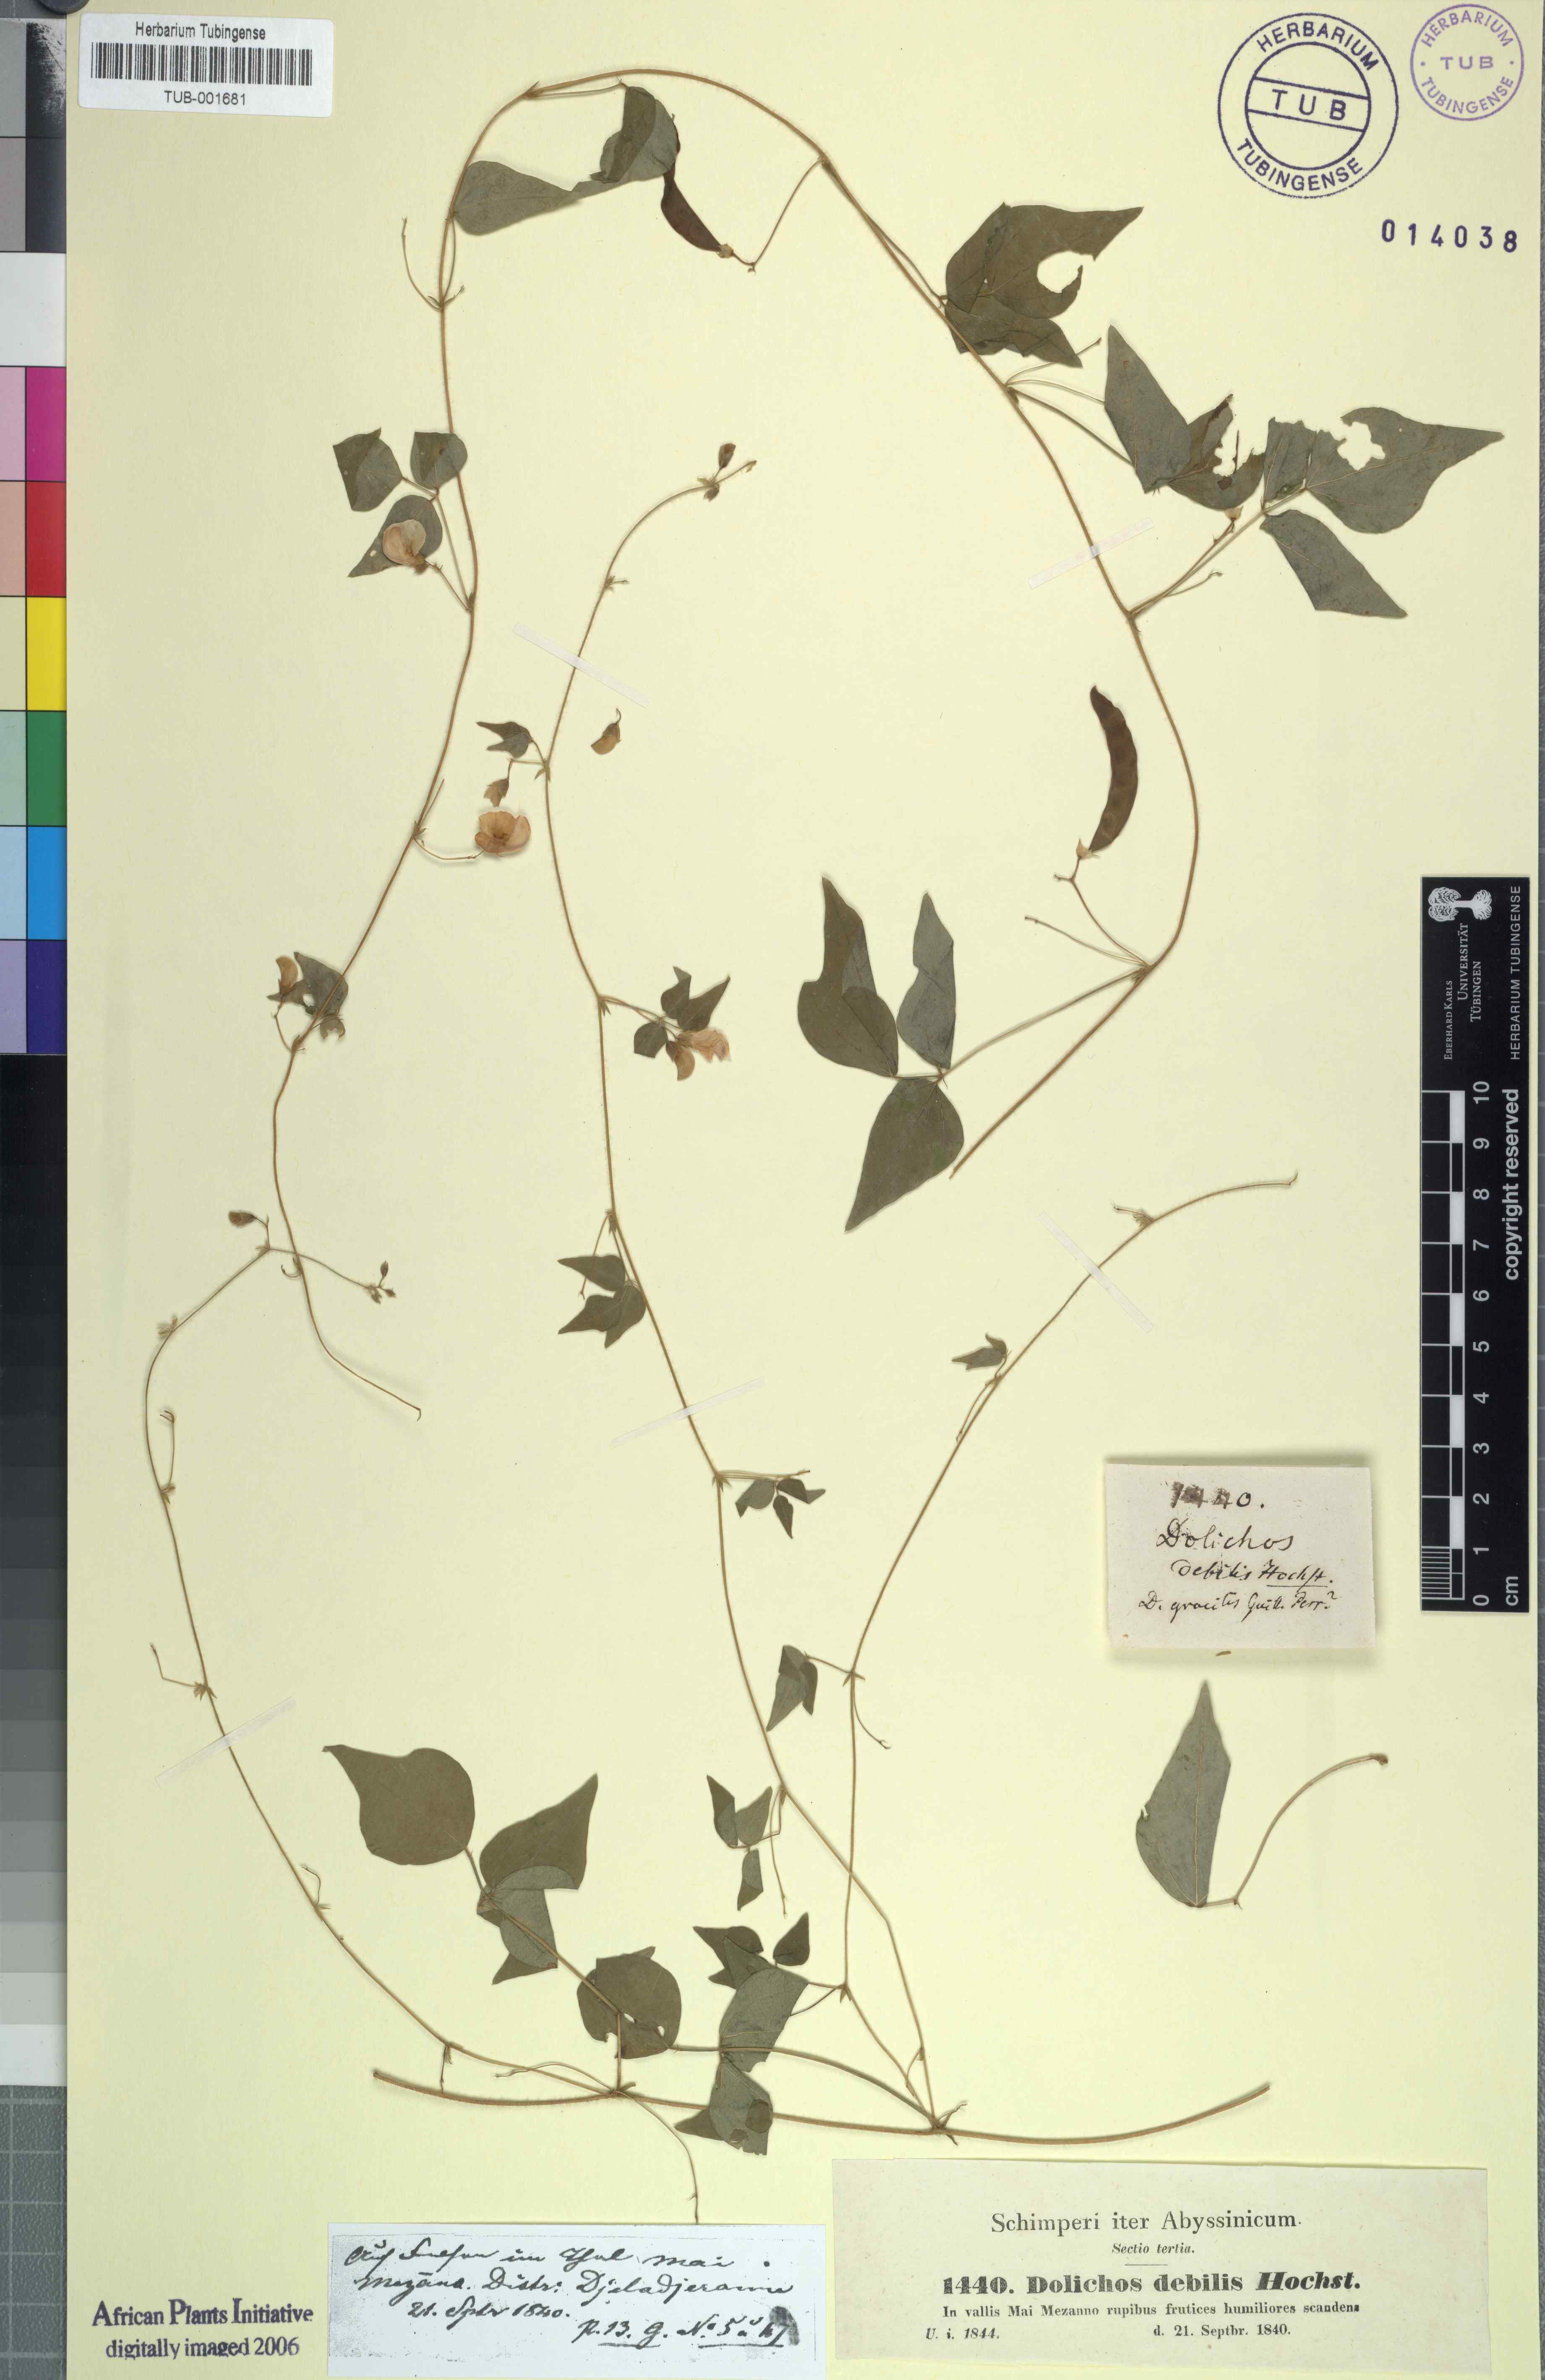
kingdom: Plantae
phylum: Tracheophyta
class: Magnoliopsida
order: Fabales
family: Fabaceae
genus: Dolichos
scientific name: Dolichos trilobus
